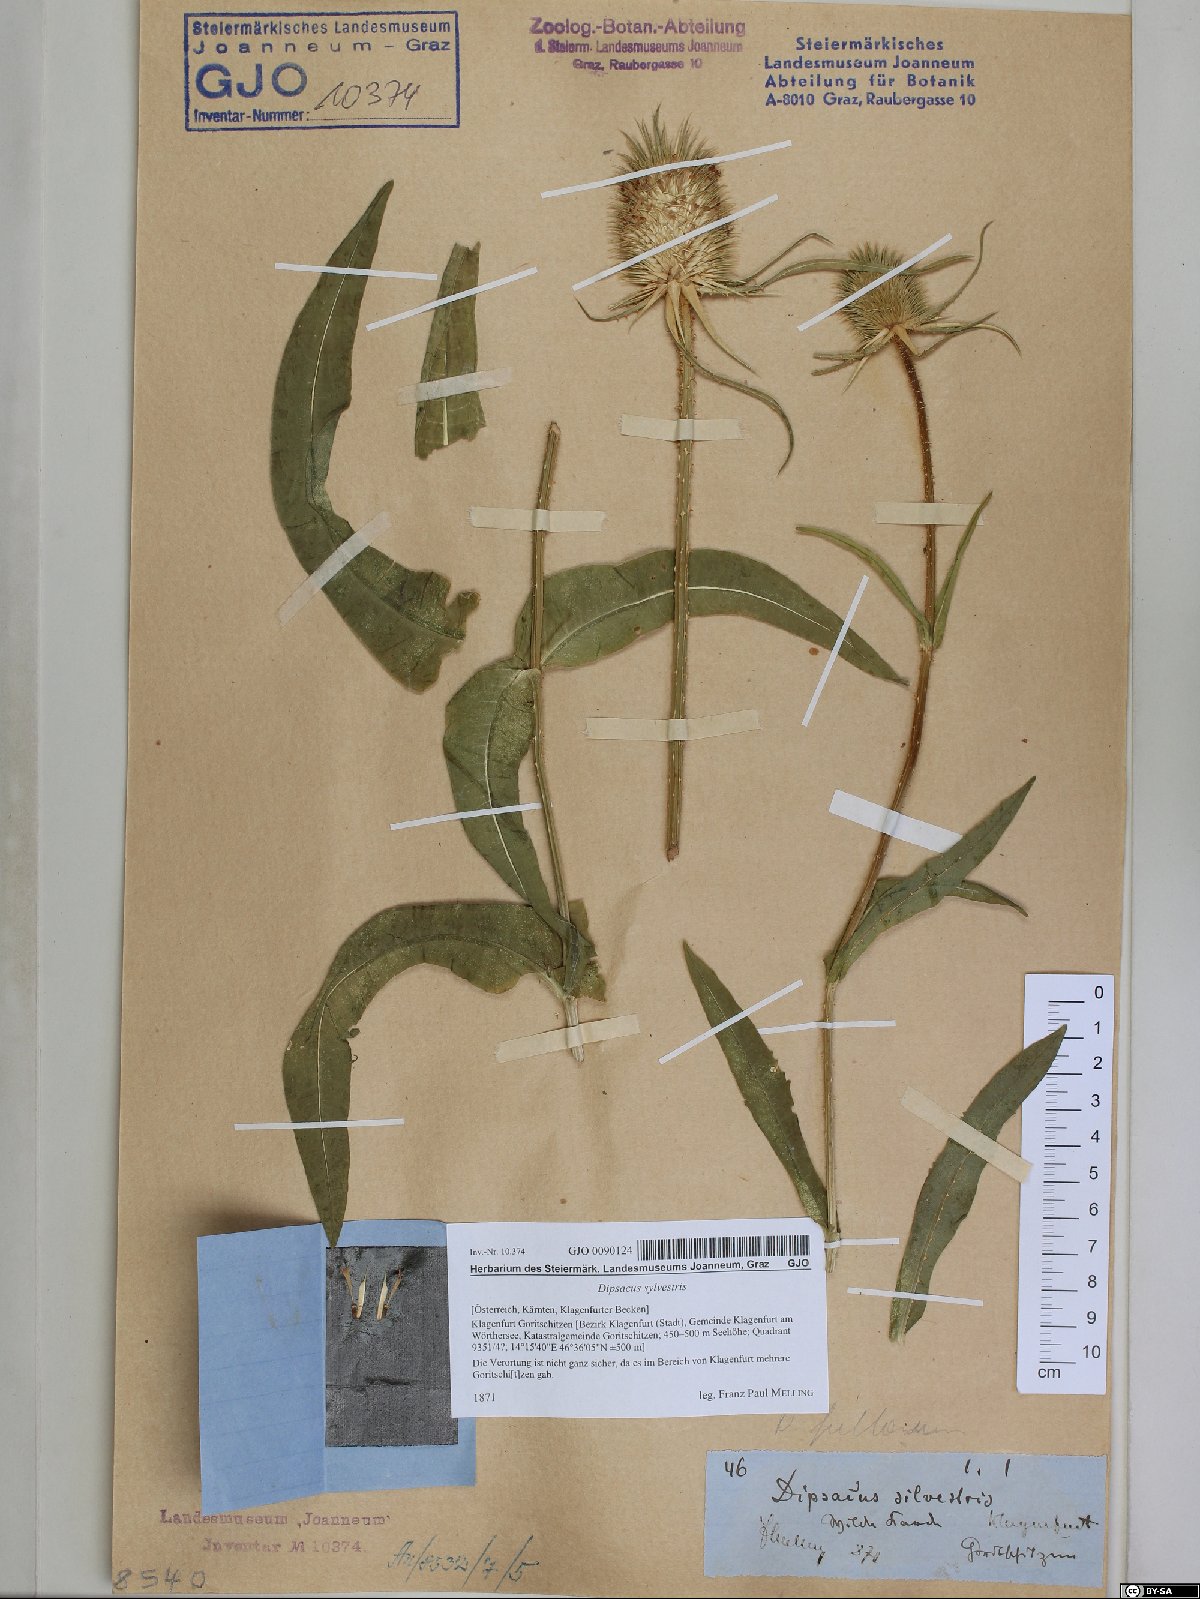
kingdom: Plantae
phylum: Tracheophyta
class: Magnoliopsida
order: Dipsacales
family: Caprifoliaceae
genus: Dipsacus
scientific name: Dipsacus fullonum
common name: Teasel
